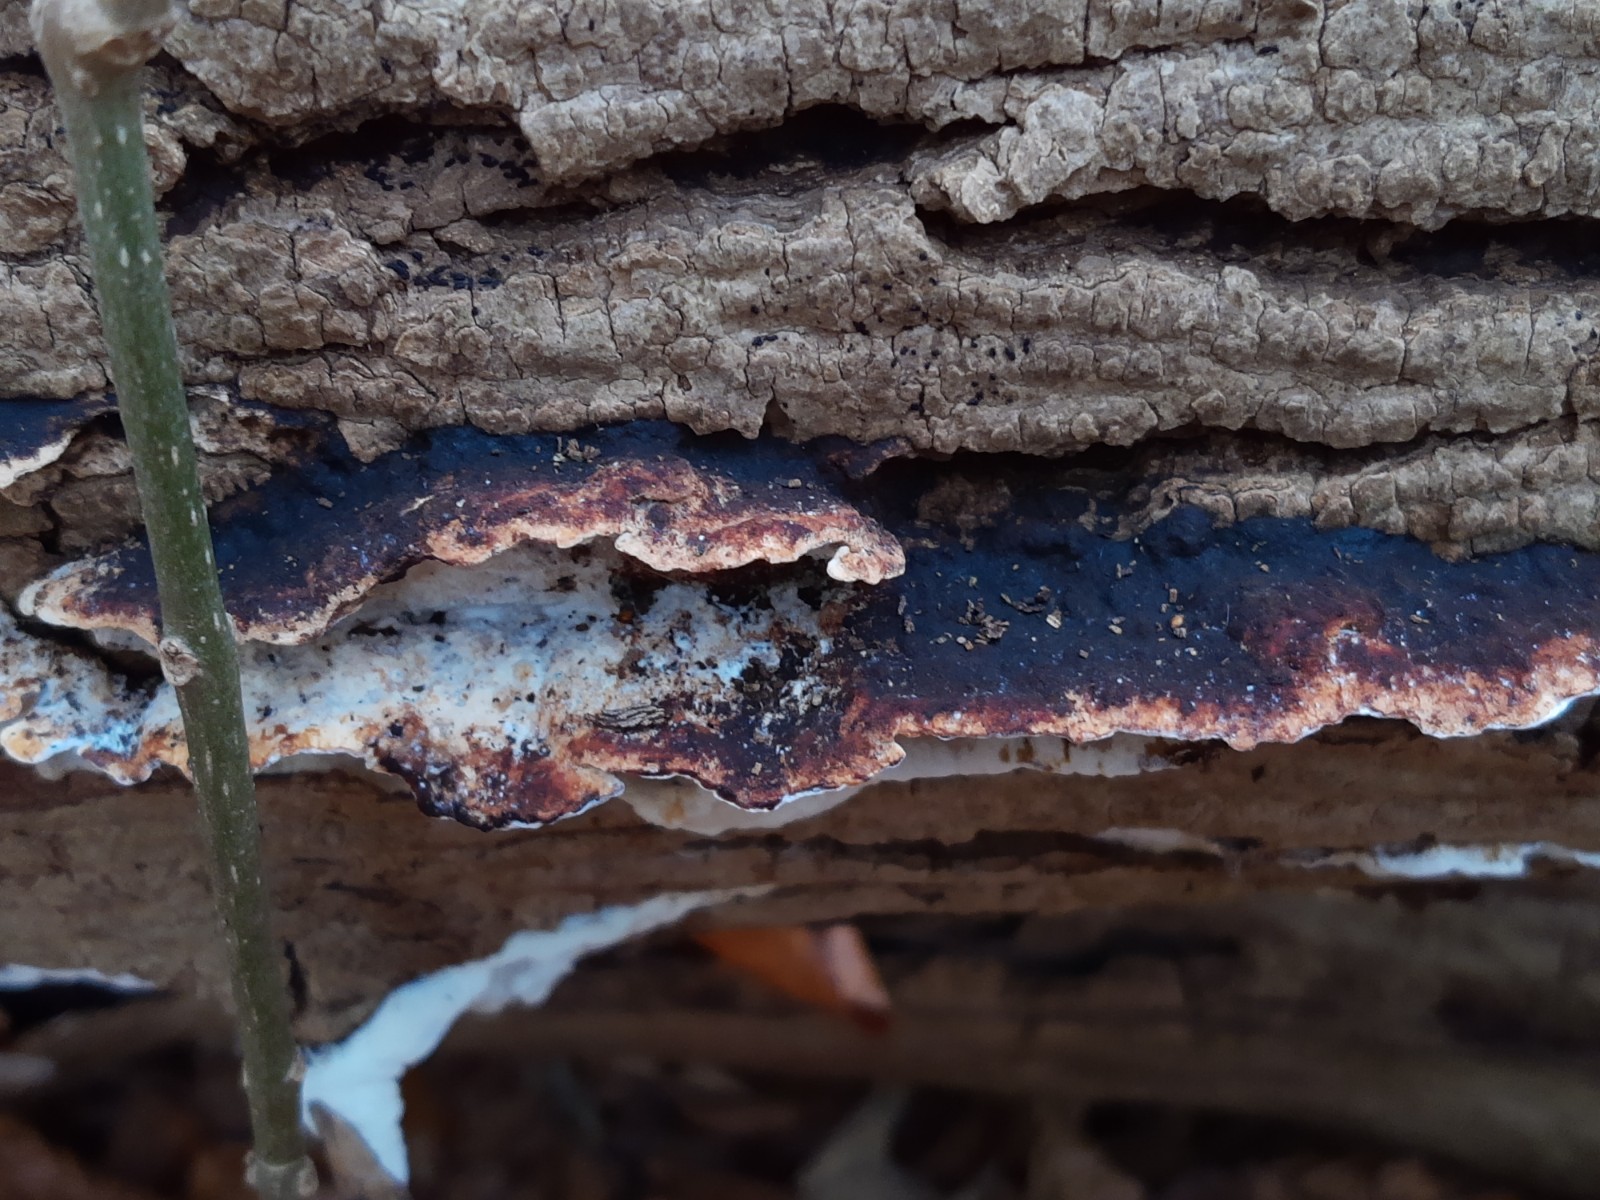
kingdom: Fungi
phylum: Basidiomycota
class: Agaricomycetes
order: Polyporales
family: Incrustoporiaceae
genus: Skeletocutis
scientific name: Skeletocutis nemoralis
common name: stor krystalporesvamp
